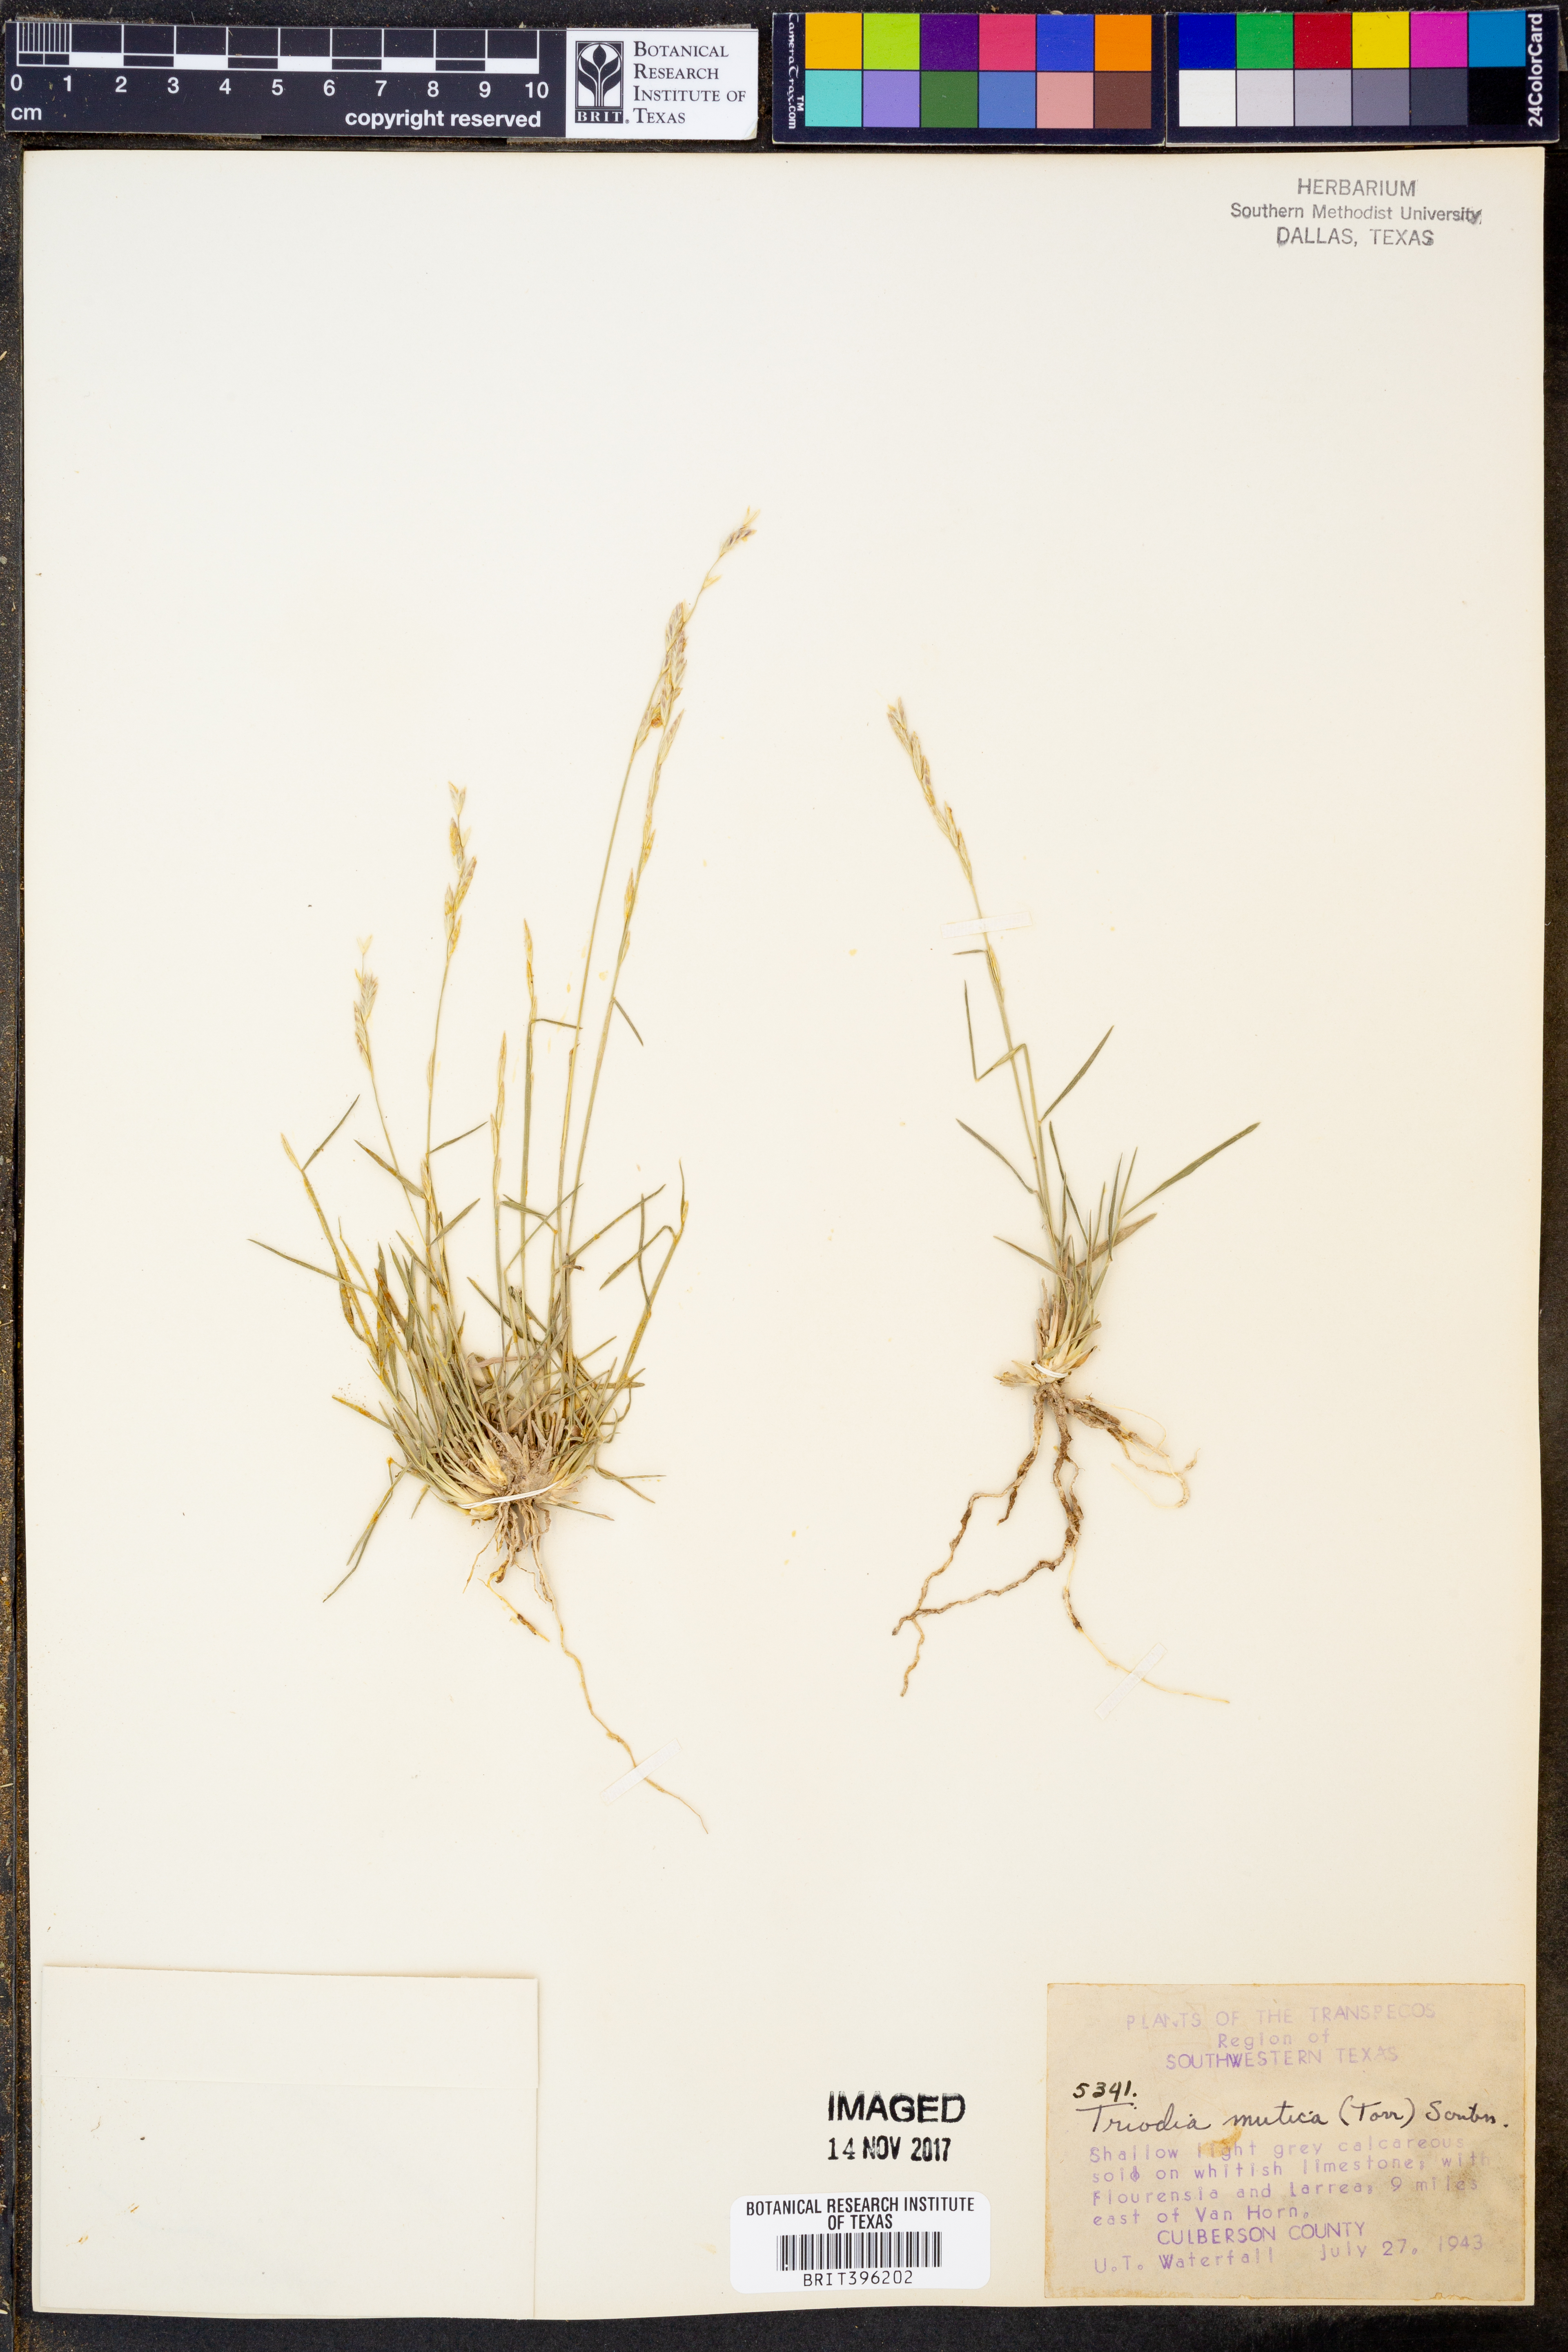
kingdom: Plantae
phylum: Tracheophyta
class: Liliopsida
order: Poales
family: Poaceae
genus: Tridentopsis
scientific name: Tridentopsis mutica
